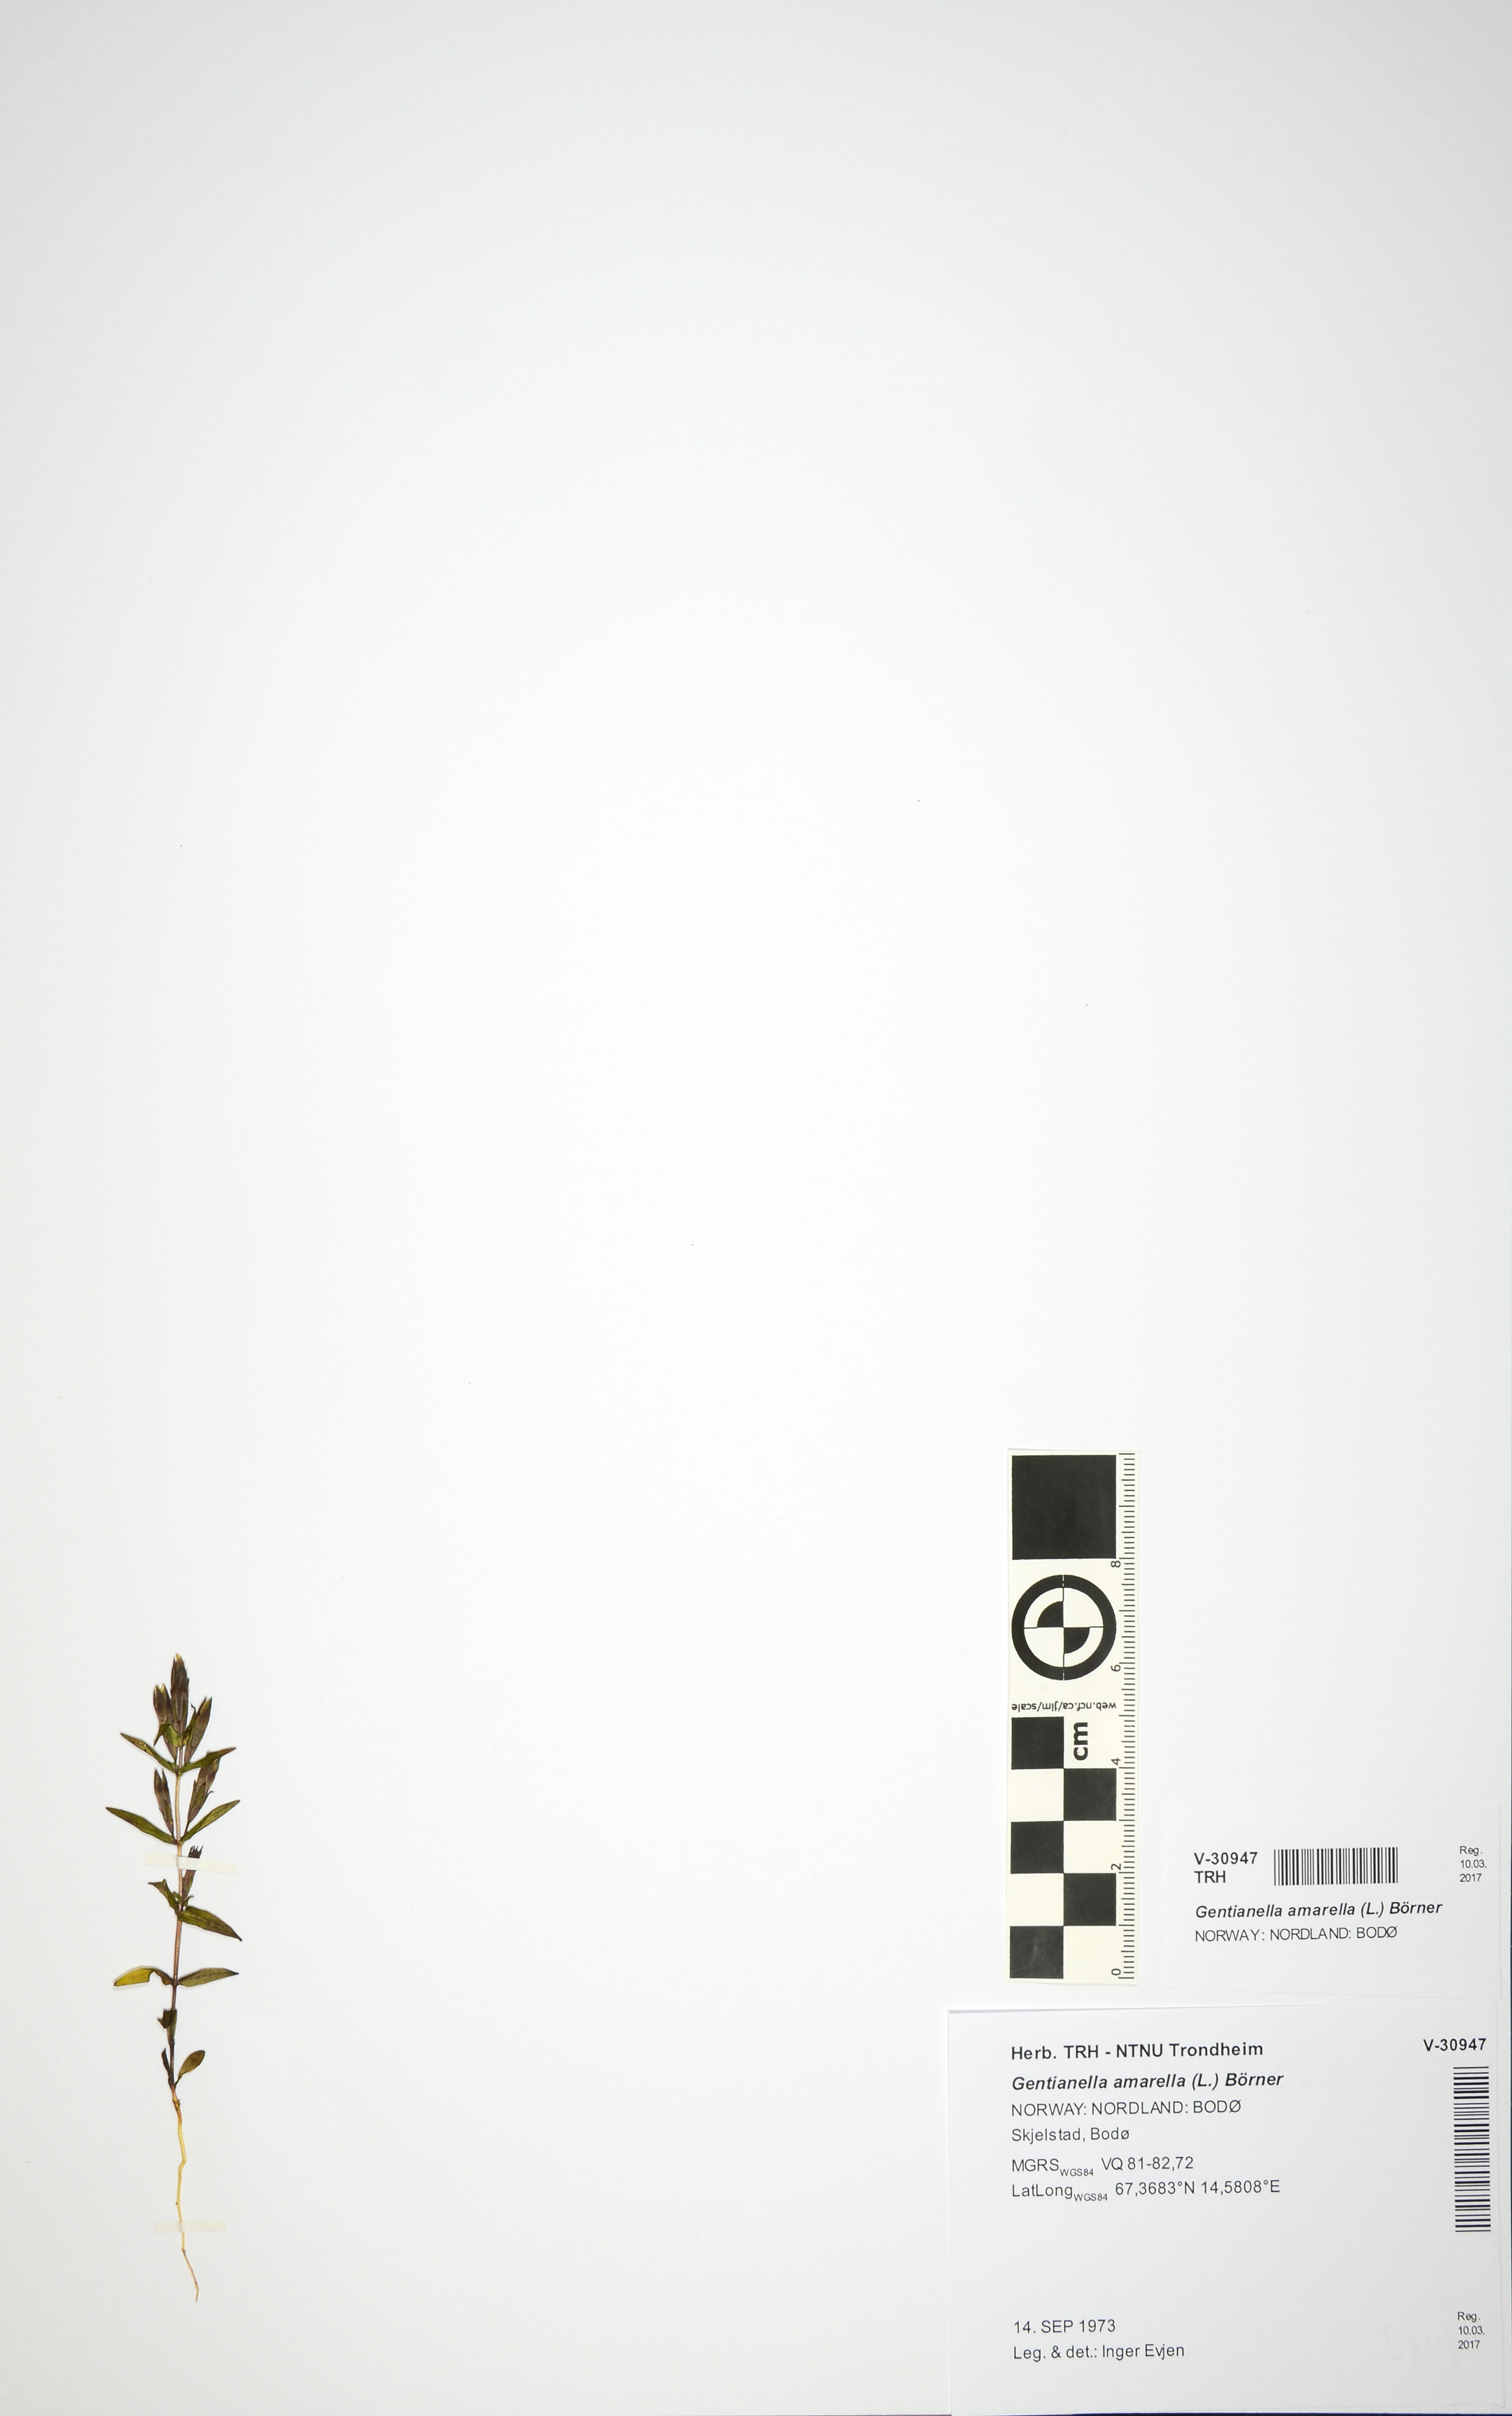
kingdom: Plantae
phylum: Tracheophyta
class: Magnoliopsida
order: Gentianales
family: Gentianaceae
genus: Gentianella
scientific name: Gentianella amarella
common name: Autumn gentian
